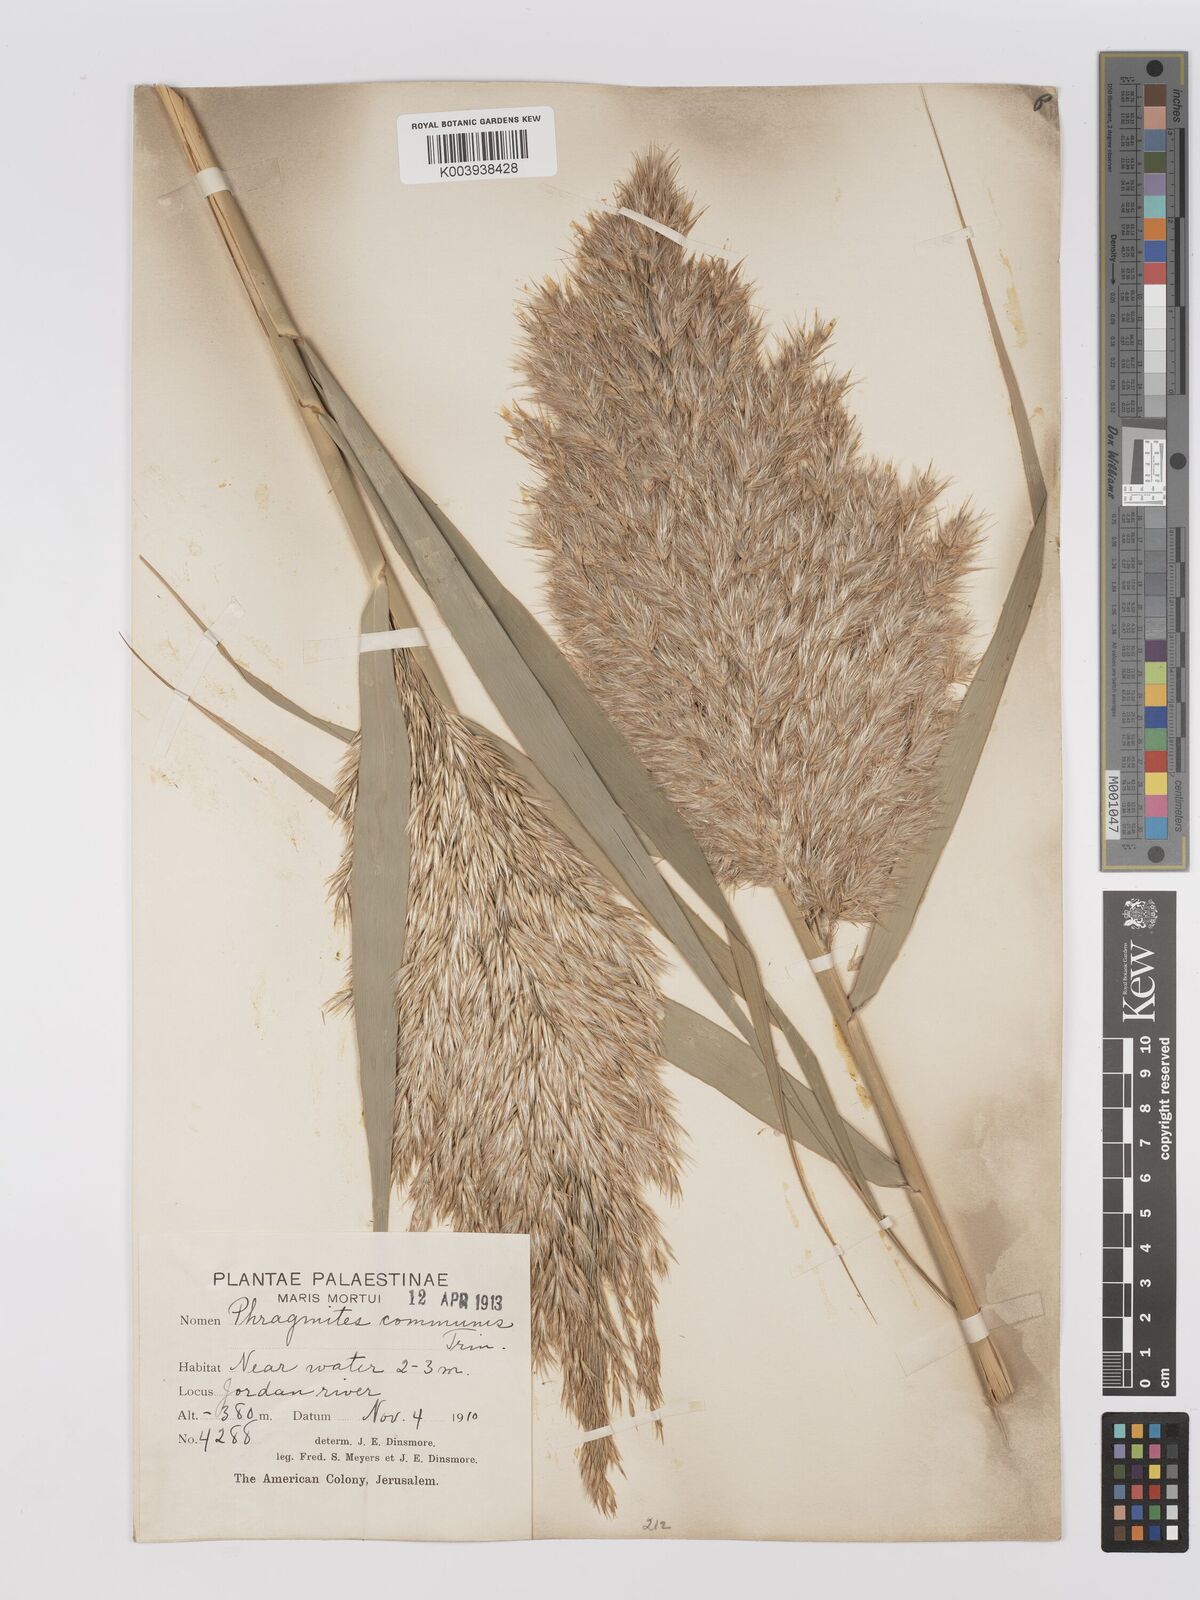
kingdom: Plantae
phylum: Tracheophyta
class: Liliopsida
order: Poales
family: Poaceae
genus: Phragmites
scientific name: Phragmites australis
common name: Common reed
